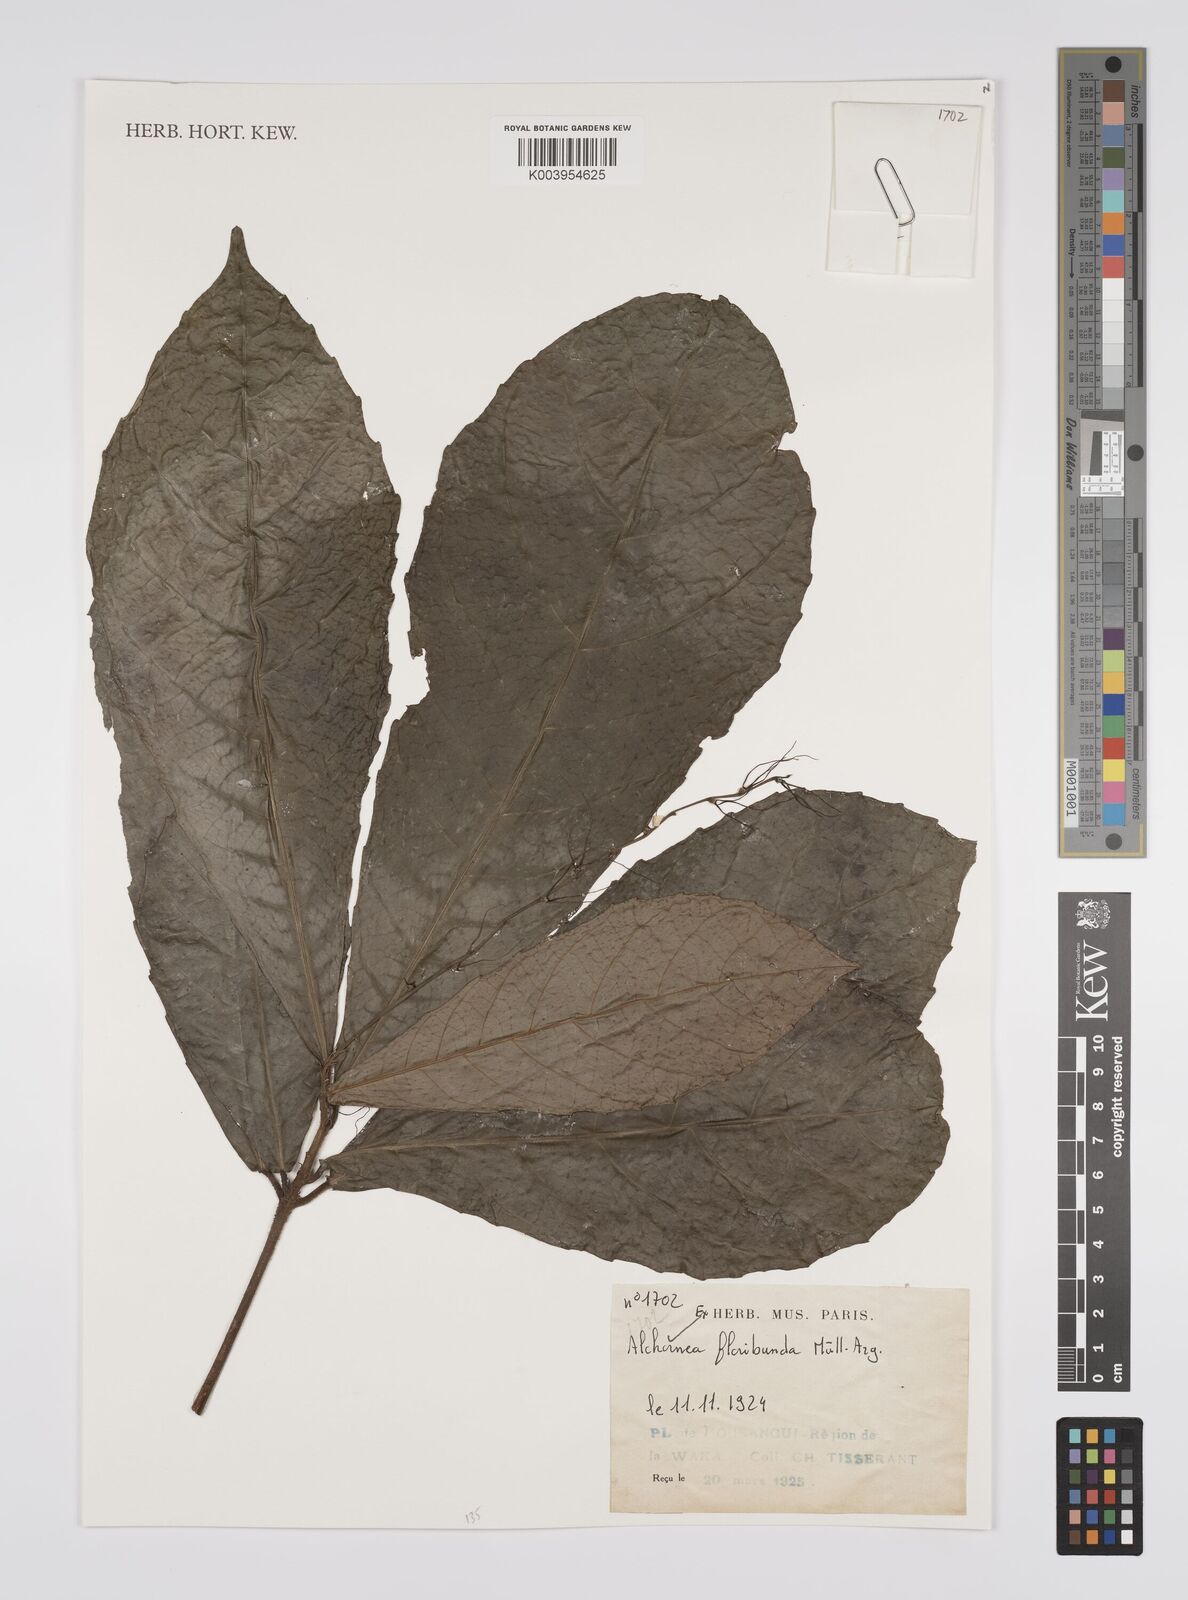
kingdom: Plantae
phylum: Tracheophyta
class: Magnoliopsida
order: Malpighiales
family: Euphorbiaceae
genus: Alchornea
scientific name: Alchornea floribunda
